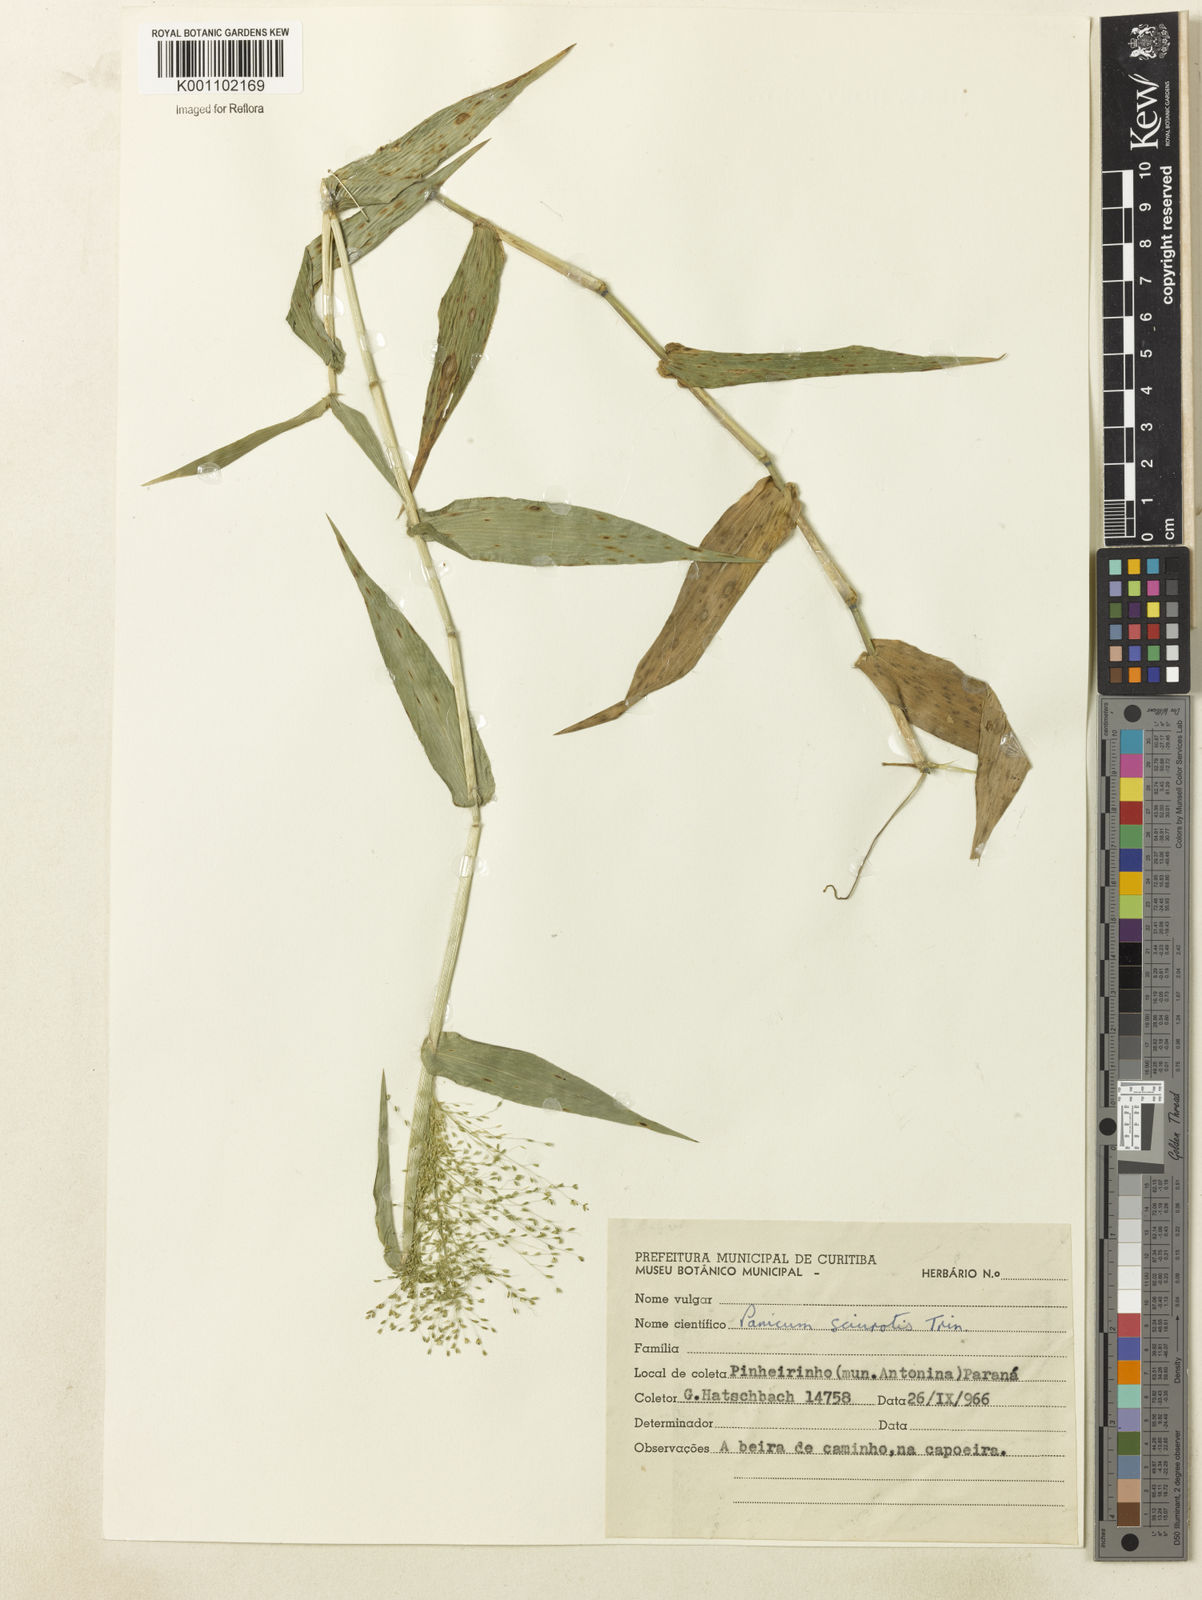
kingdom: Plantae
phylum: Tracheophyta
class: Liliopsida
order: Poales
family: Poaceae
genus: Dichanthelium
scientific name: Dichanthelium sciurotoides
